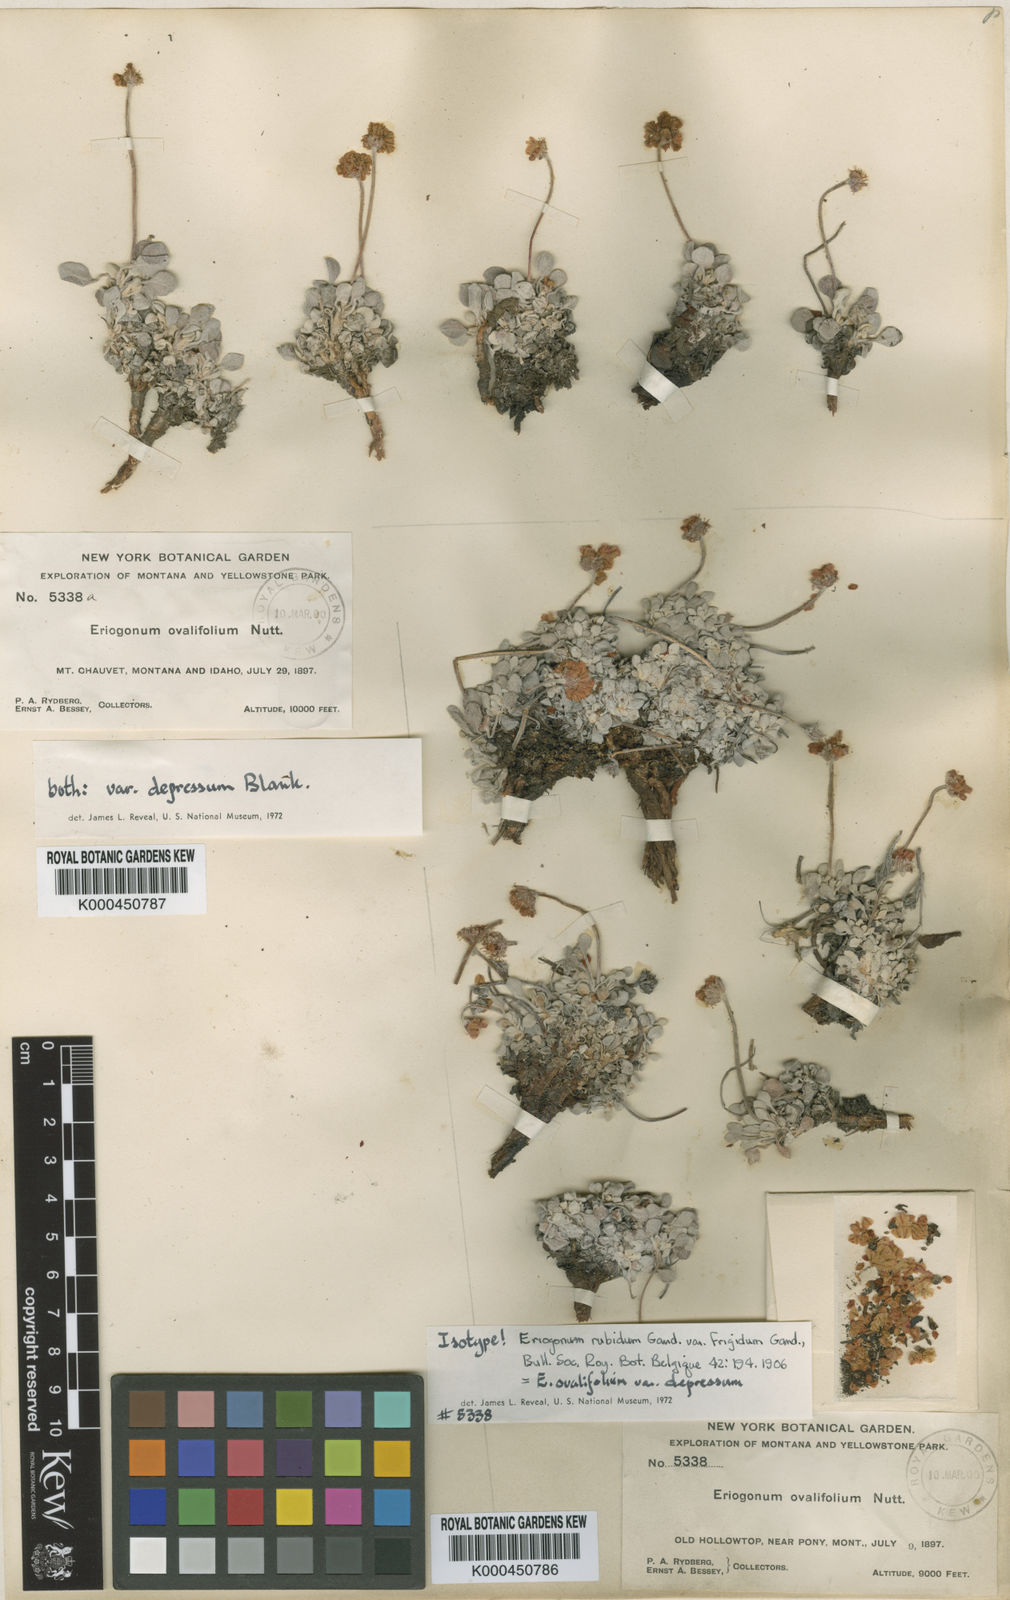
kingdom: Plantae
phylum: Tracheophyta
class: Magnoliopsida
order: Caryophyllales
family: Polygonaceae
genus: Eriogonum
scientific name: Eriogonum ovalifolium
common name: Cushion buckwheat
